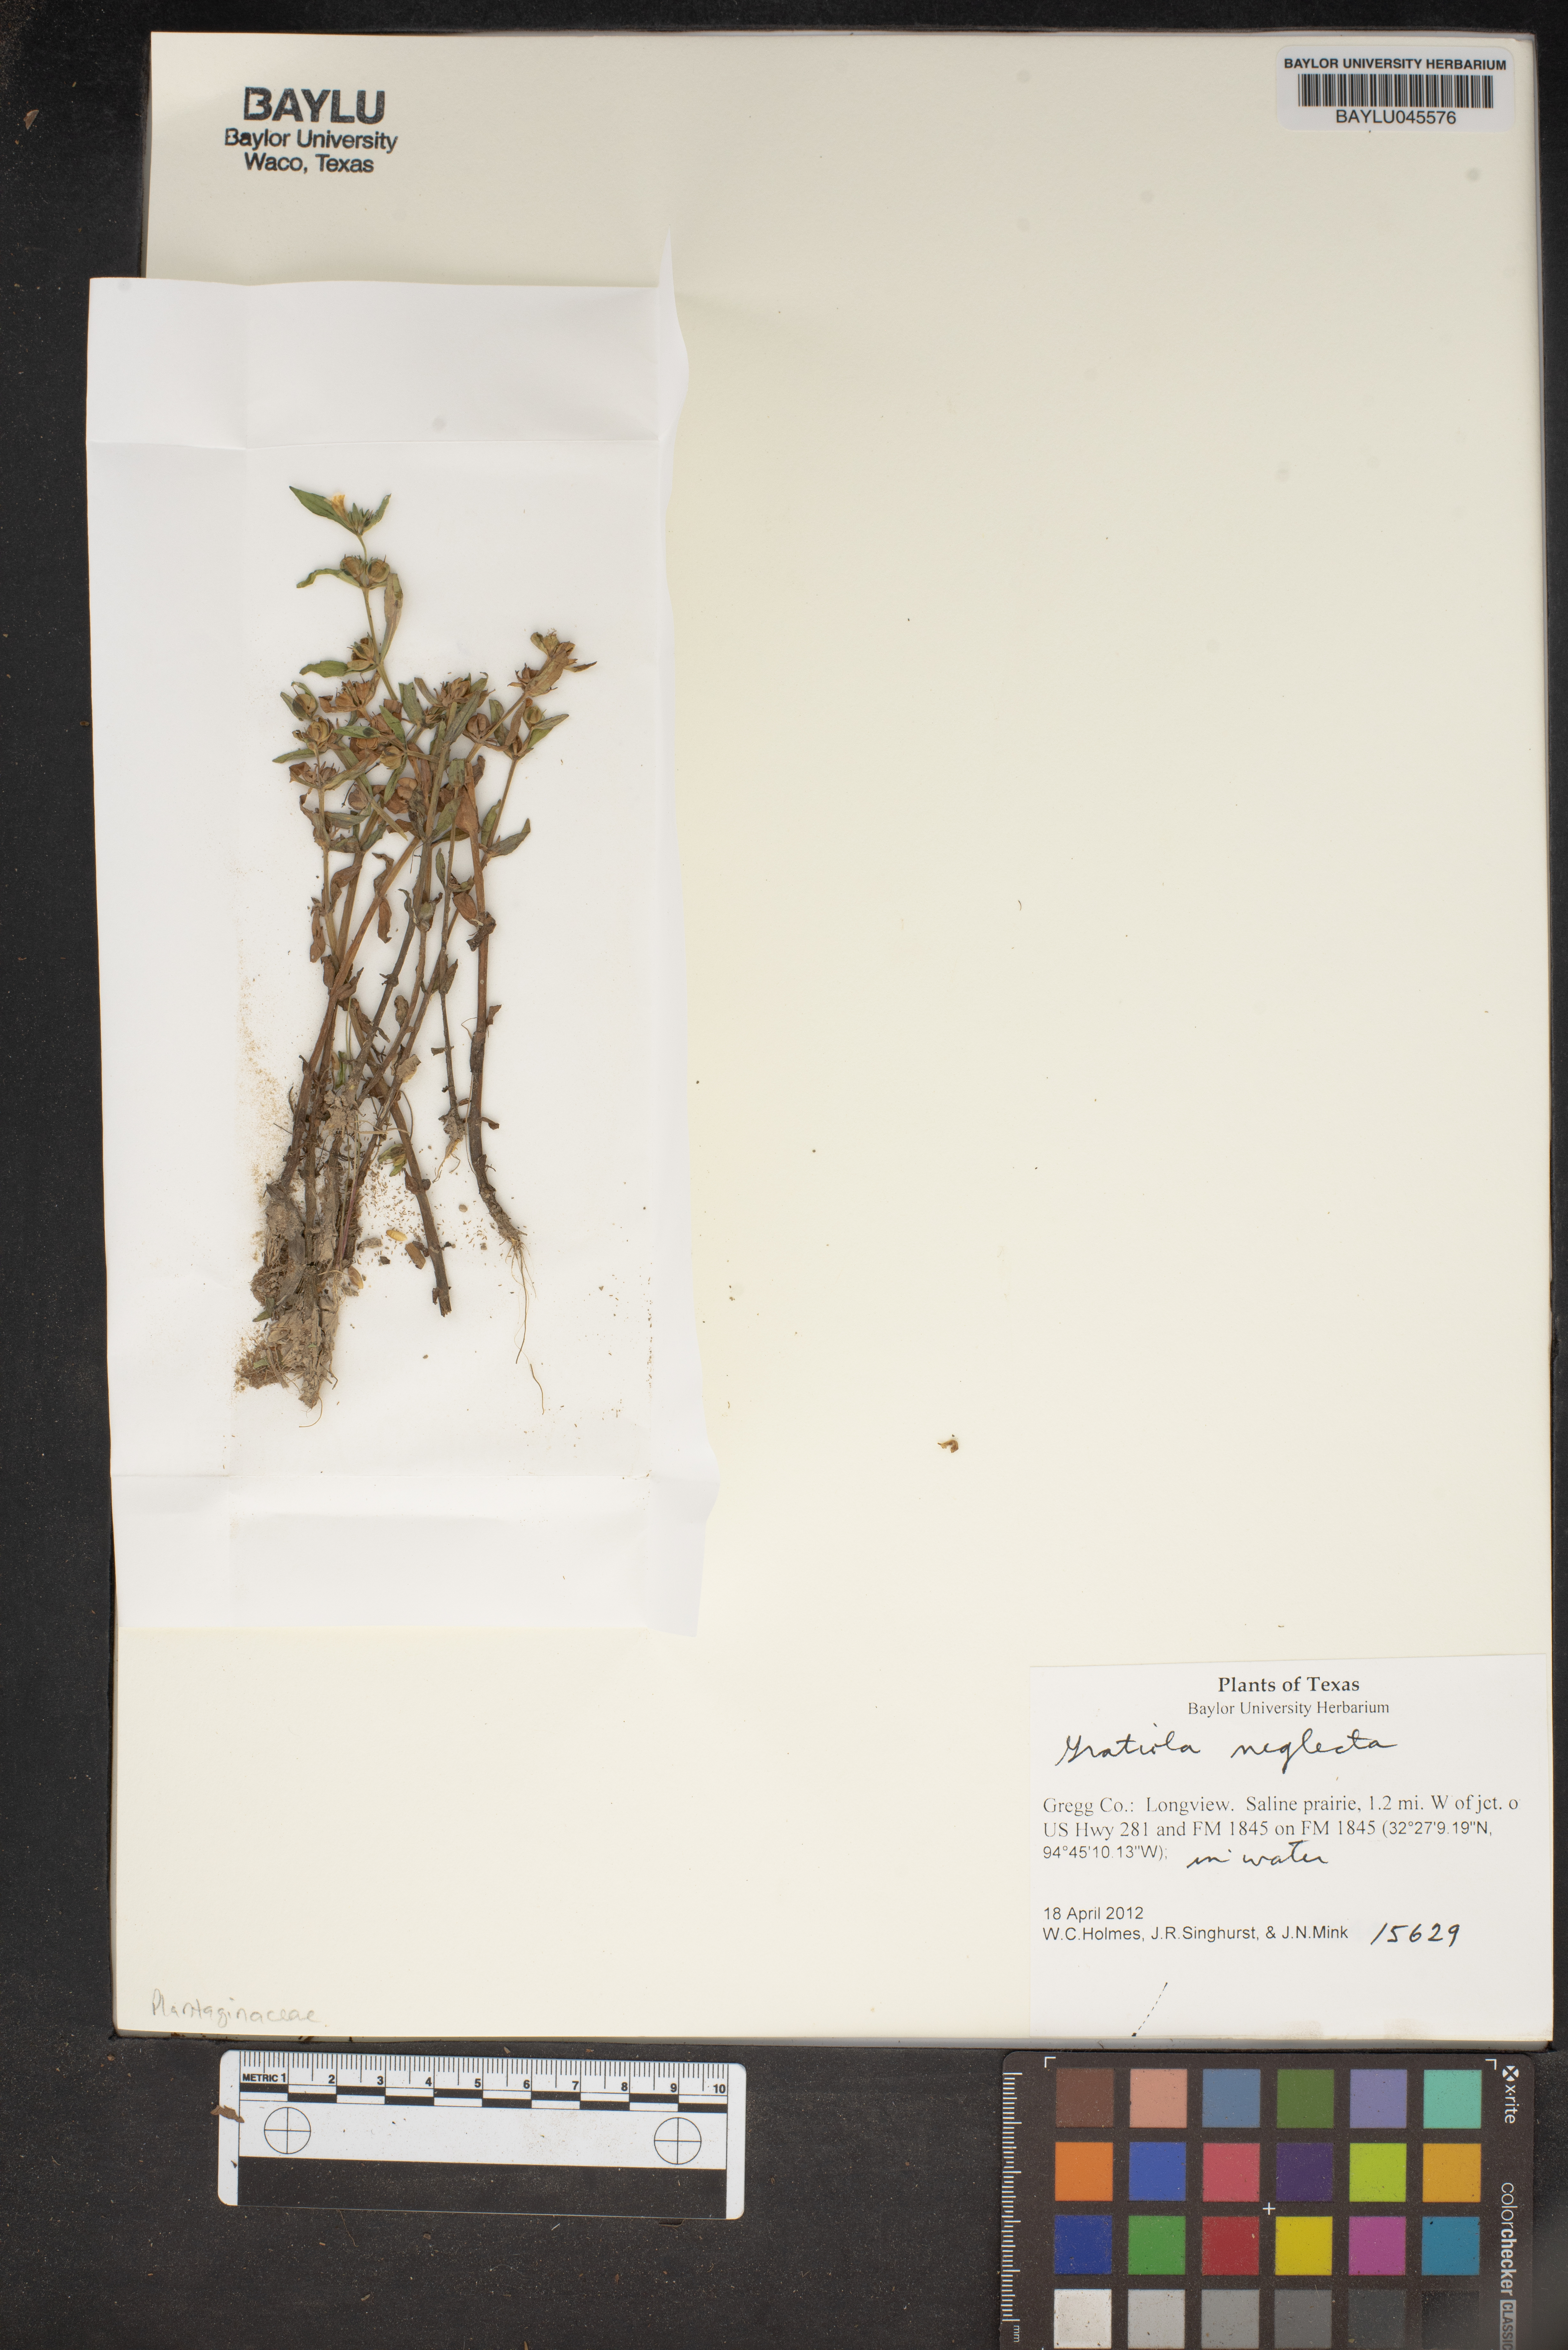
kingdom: Plantae
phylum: Tracheophyta
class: Magnoliopsida
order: Lamiales
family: Plantaginaceae
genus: Gratiola
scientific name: Gratiola neglecta
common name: American hedge-hyssop
